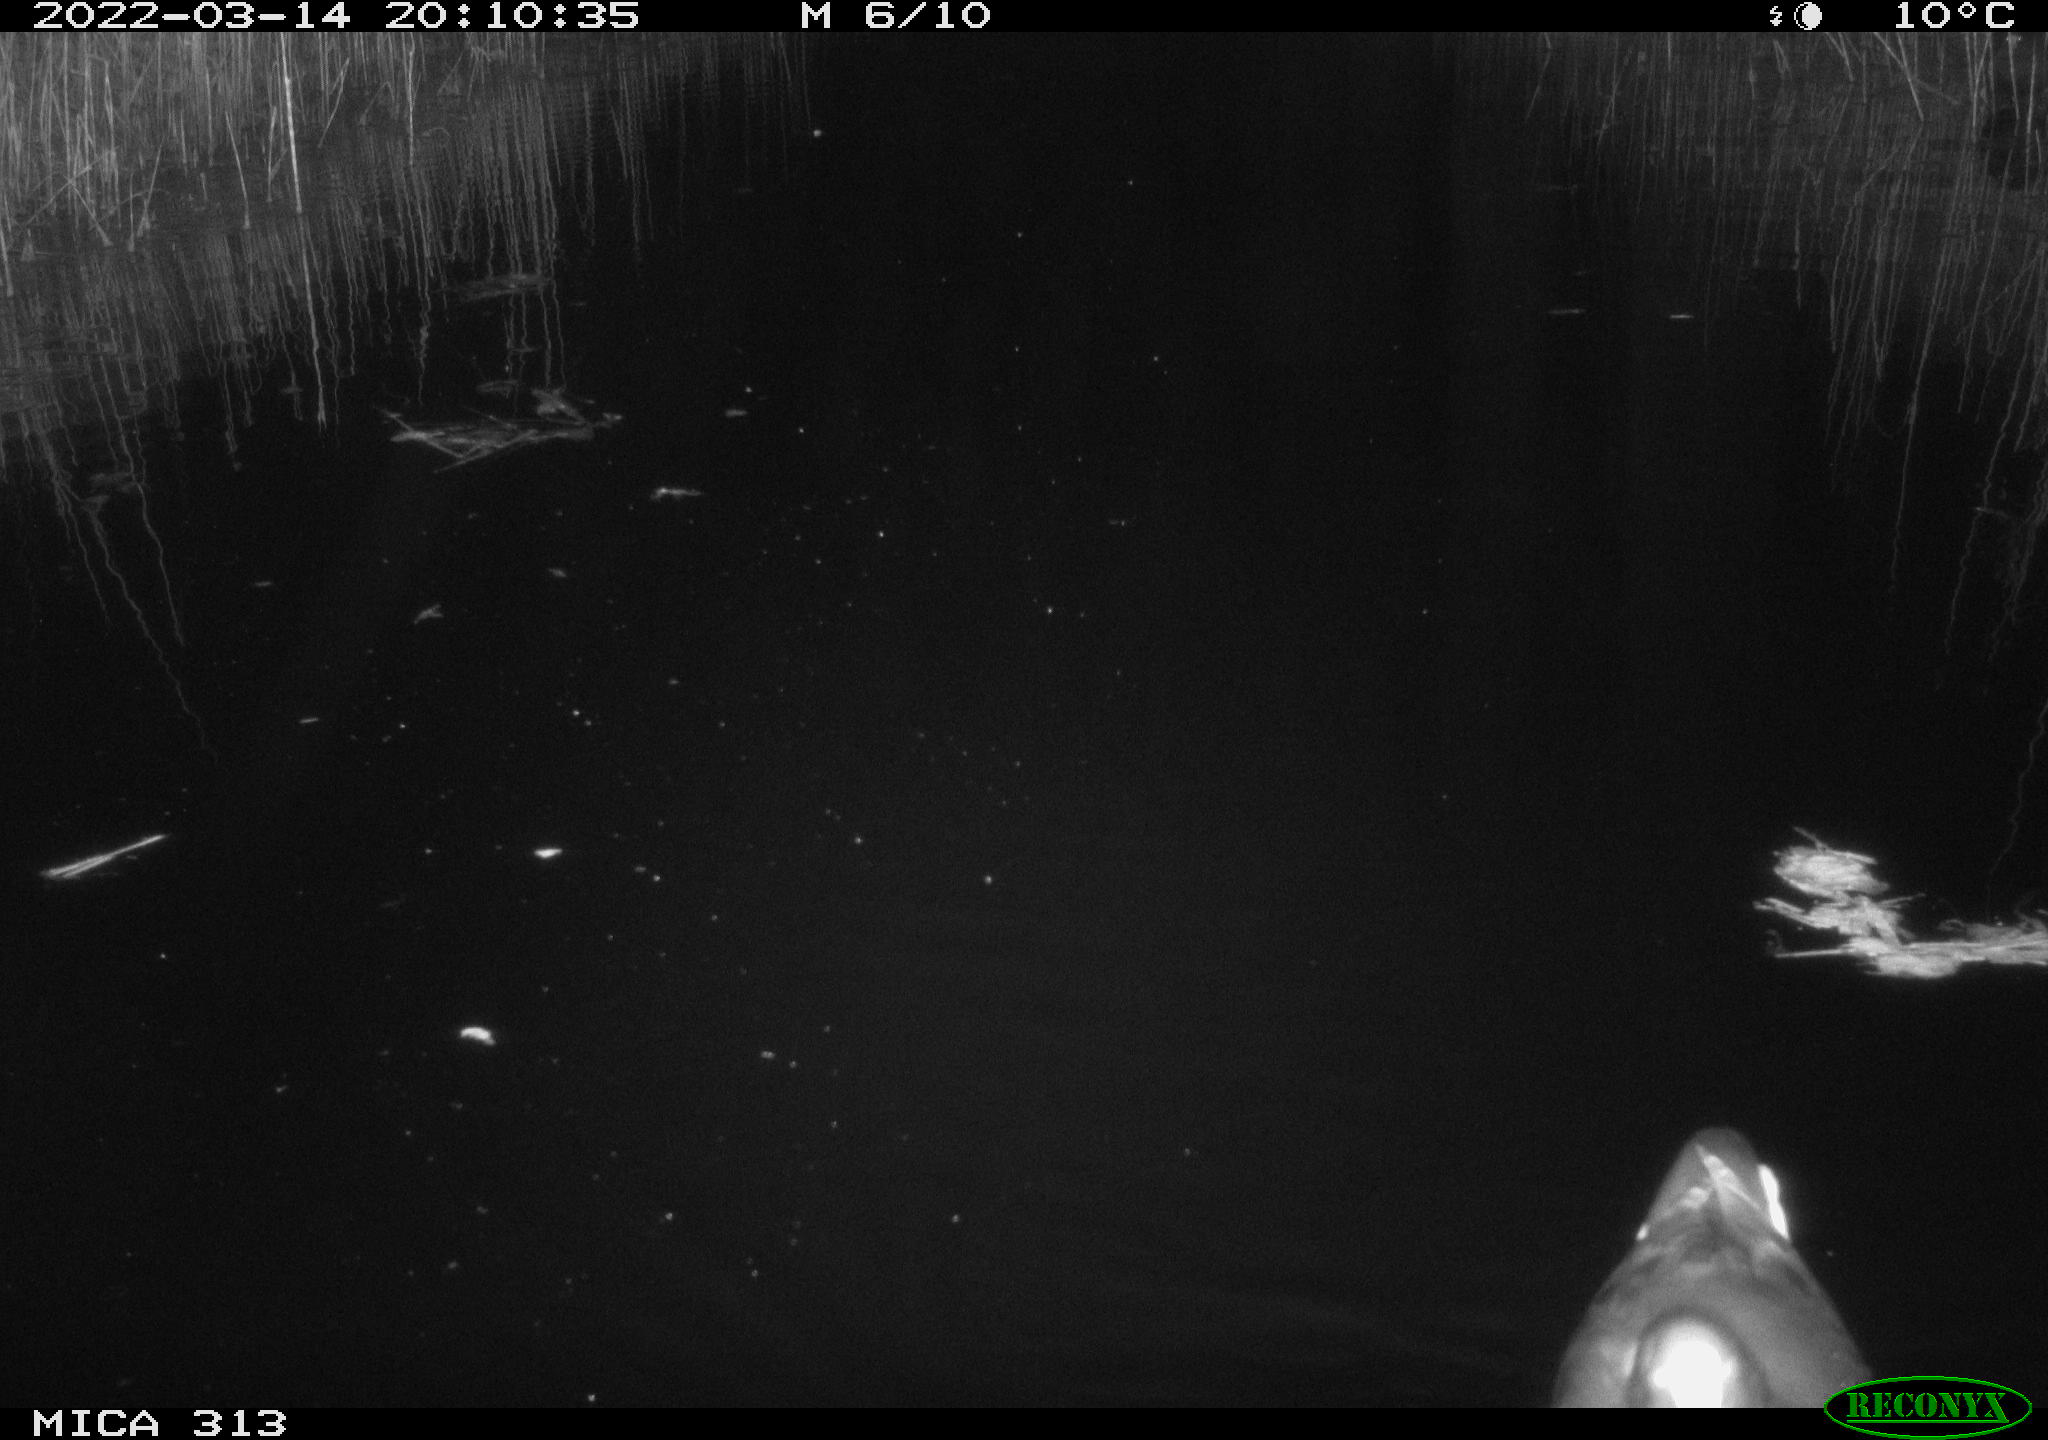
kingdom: Animalia
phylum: Chordata
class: Aves
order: Gruiformes
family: Rallidae
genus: Fulica
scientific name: Fulica atra
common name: Eurasian coot
